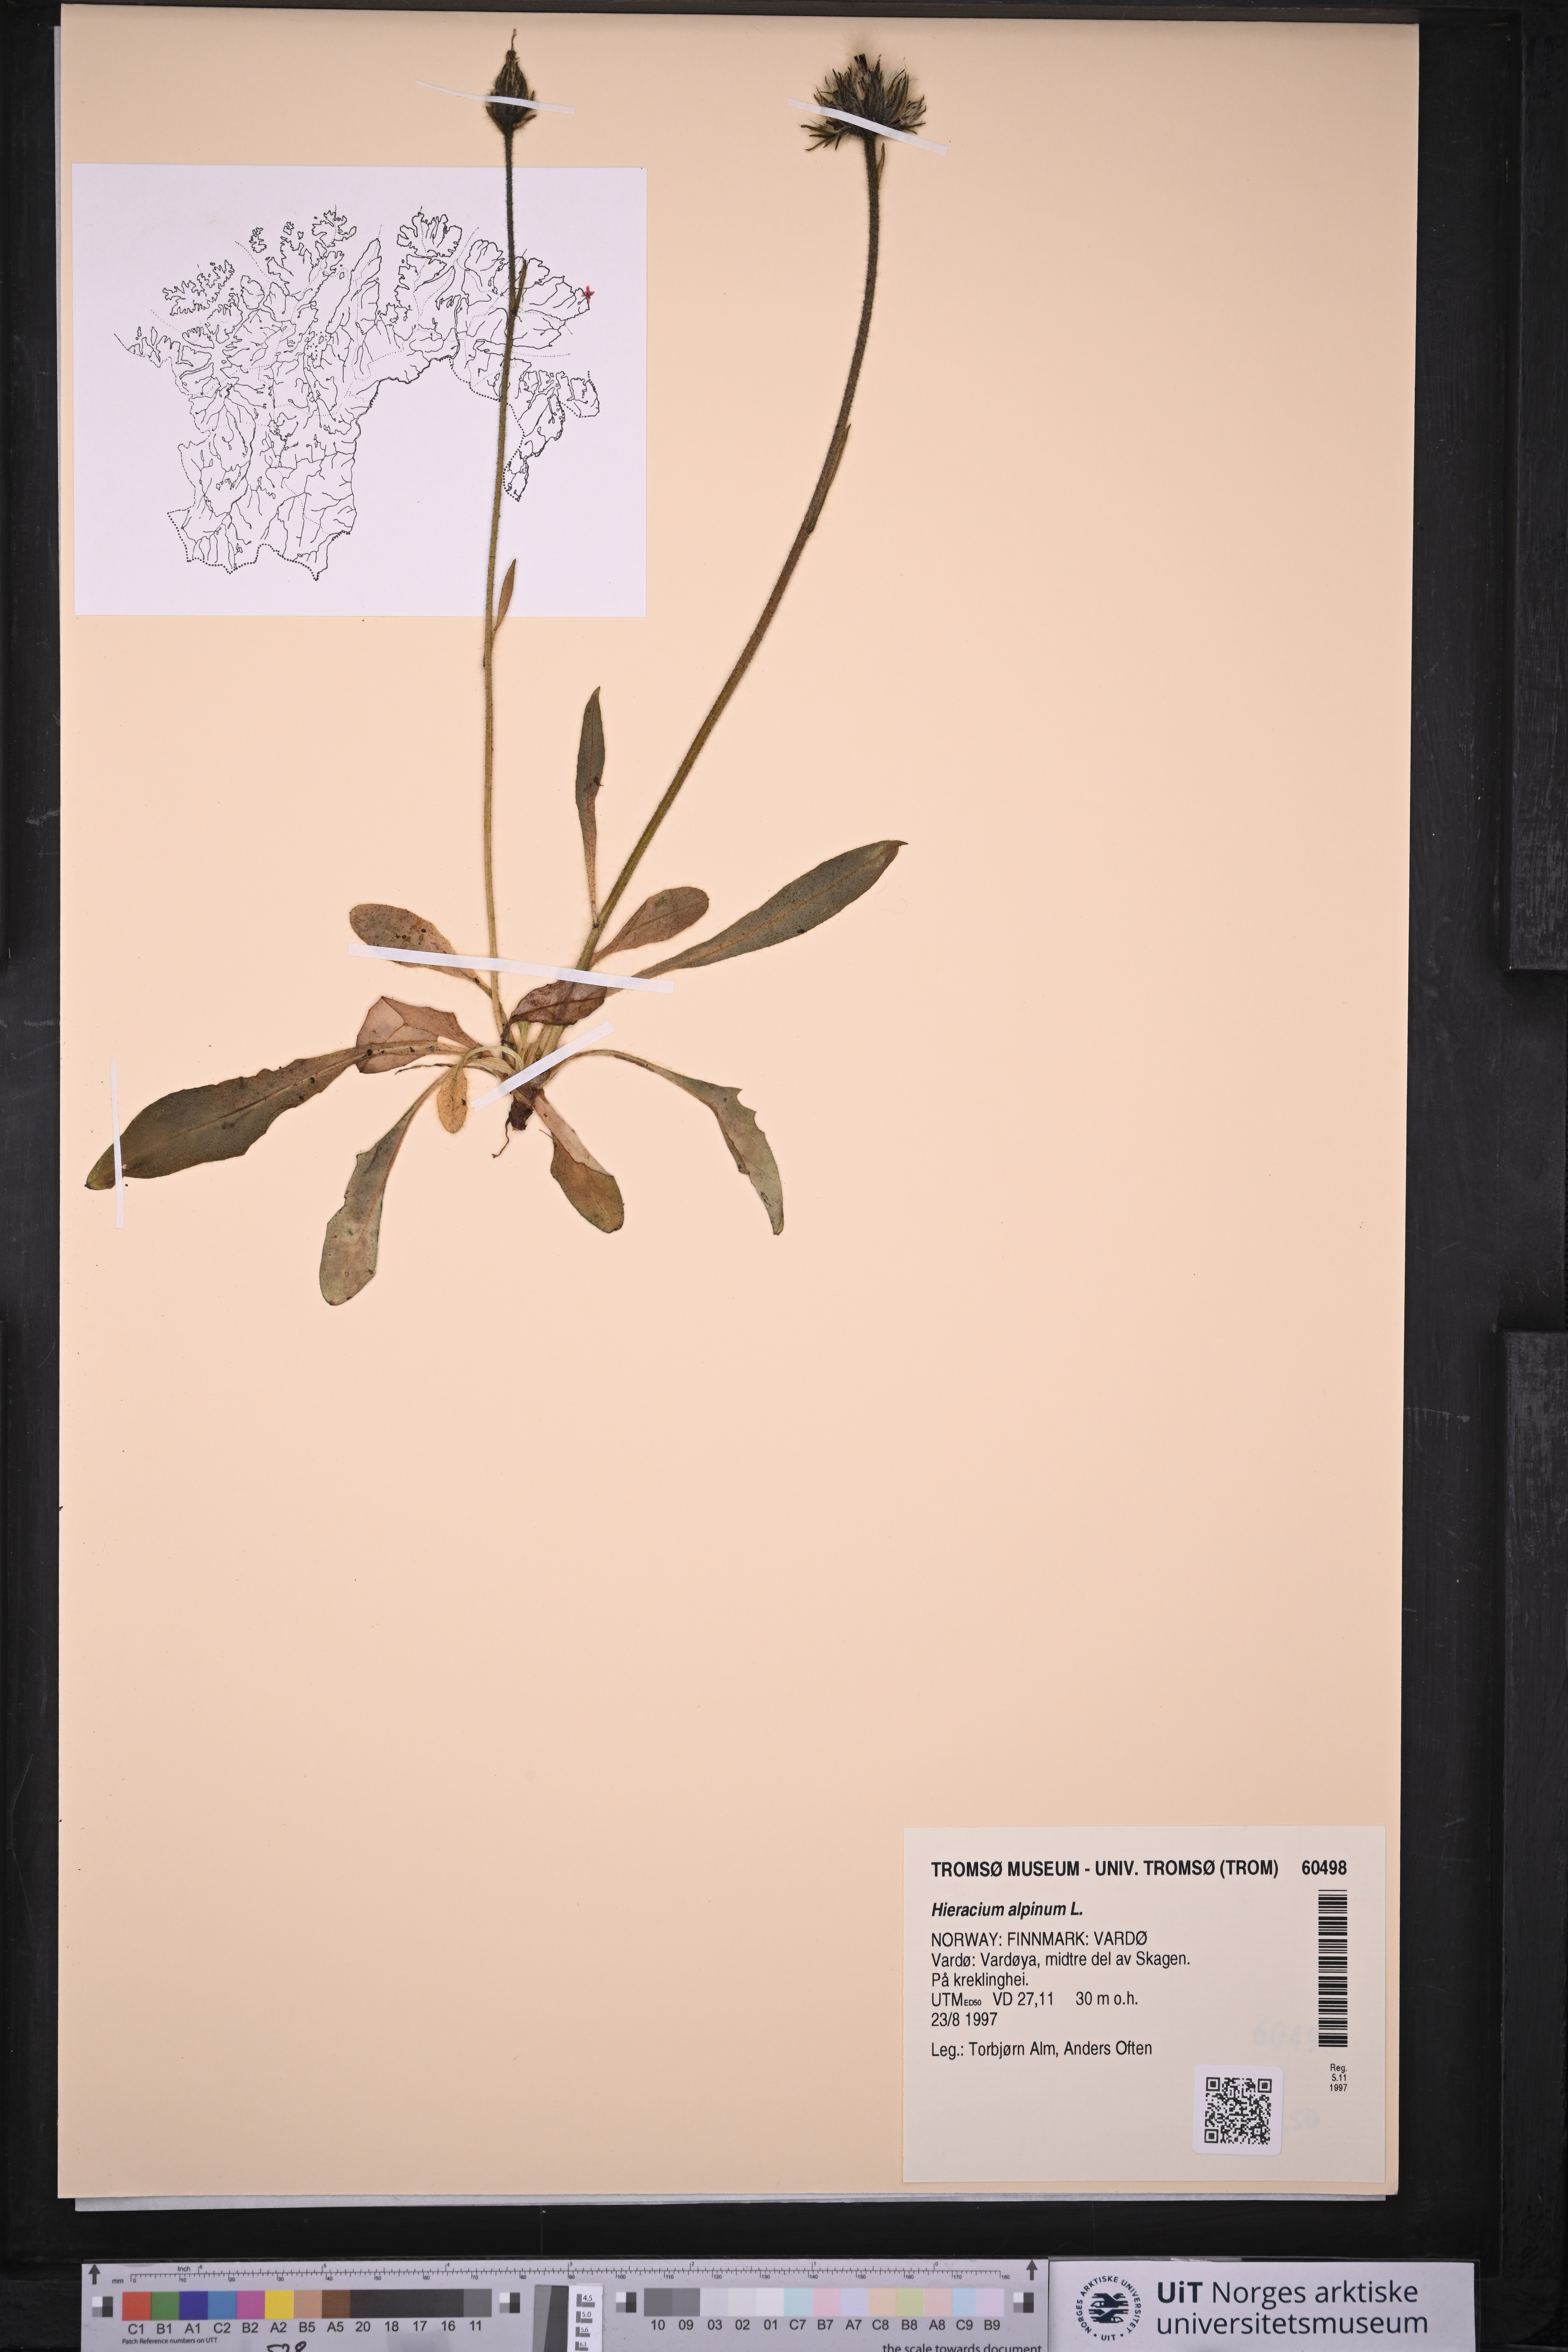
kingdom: Plantae
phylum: Tracheophyta
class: Magnoliopsida
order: Asterales
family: Asteraceae
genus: Hieracium
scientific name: Hieracium alpinum
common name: Alpine hawkweed
